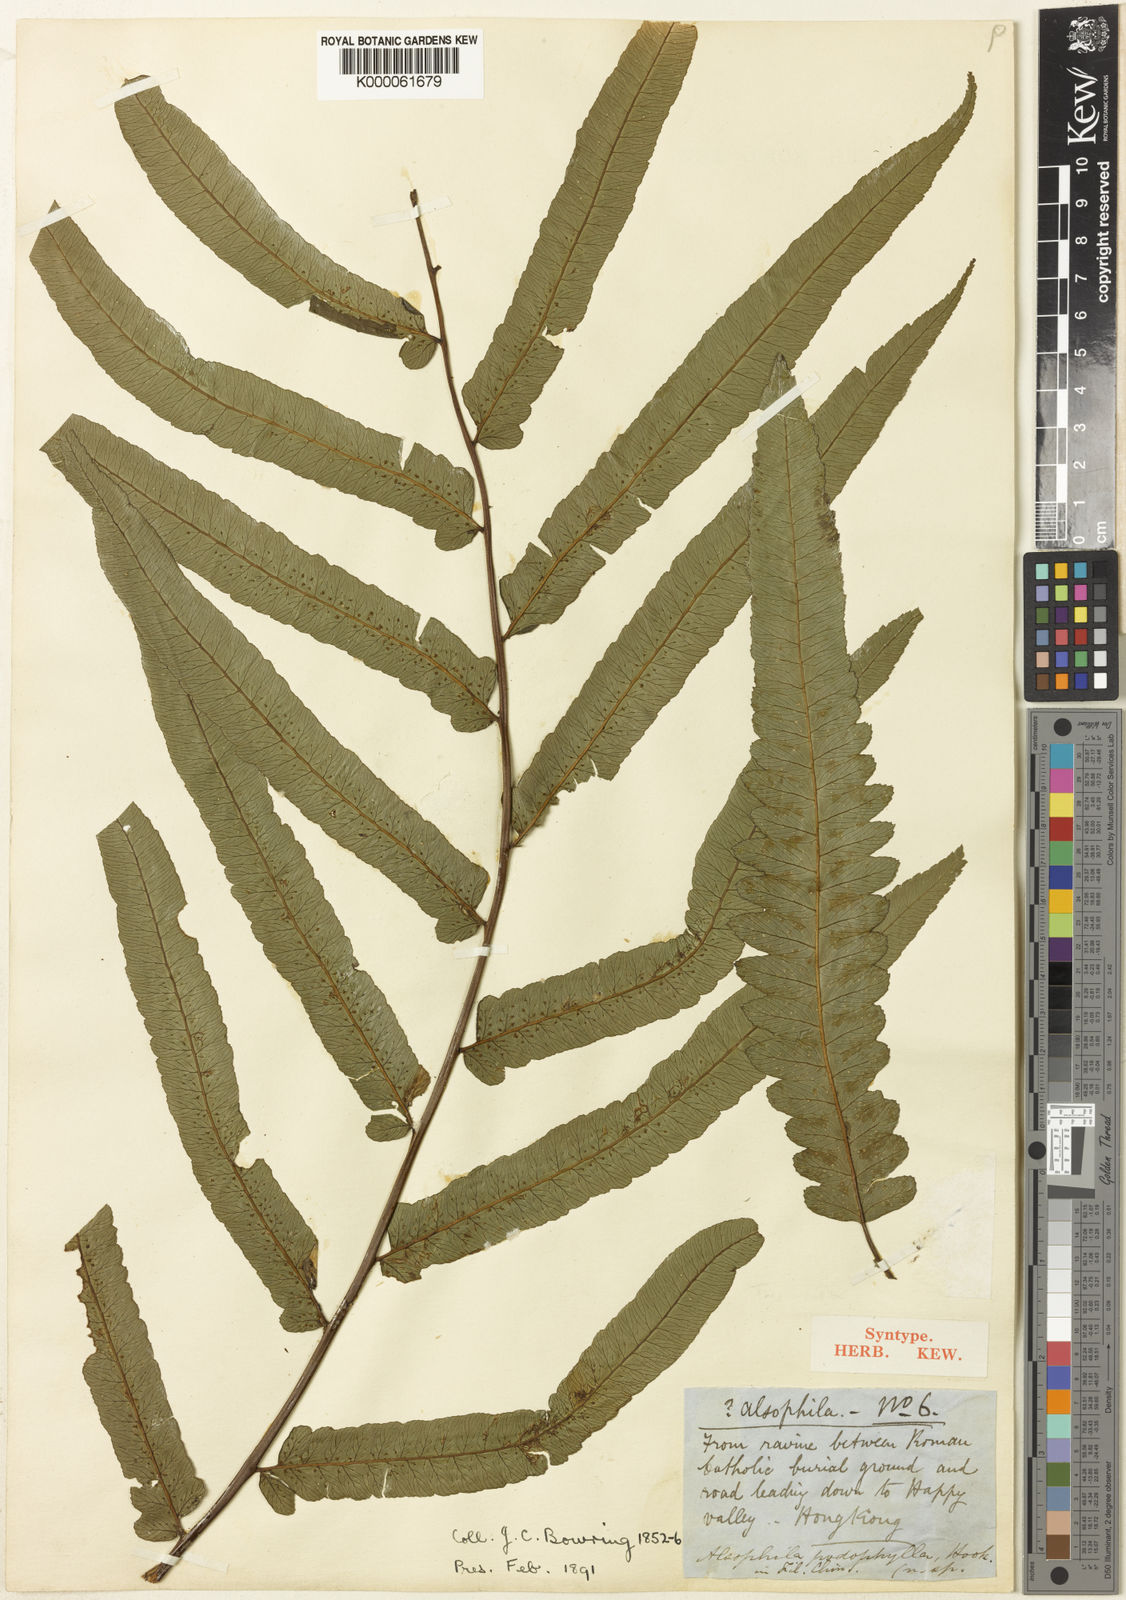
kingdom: Plantae
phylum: Tracheophyta
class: Polypodiopsida
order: Cyatheales
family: Cyatheaceae
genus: Gymnosphaera
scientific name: Gymnosphaera podophylla
